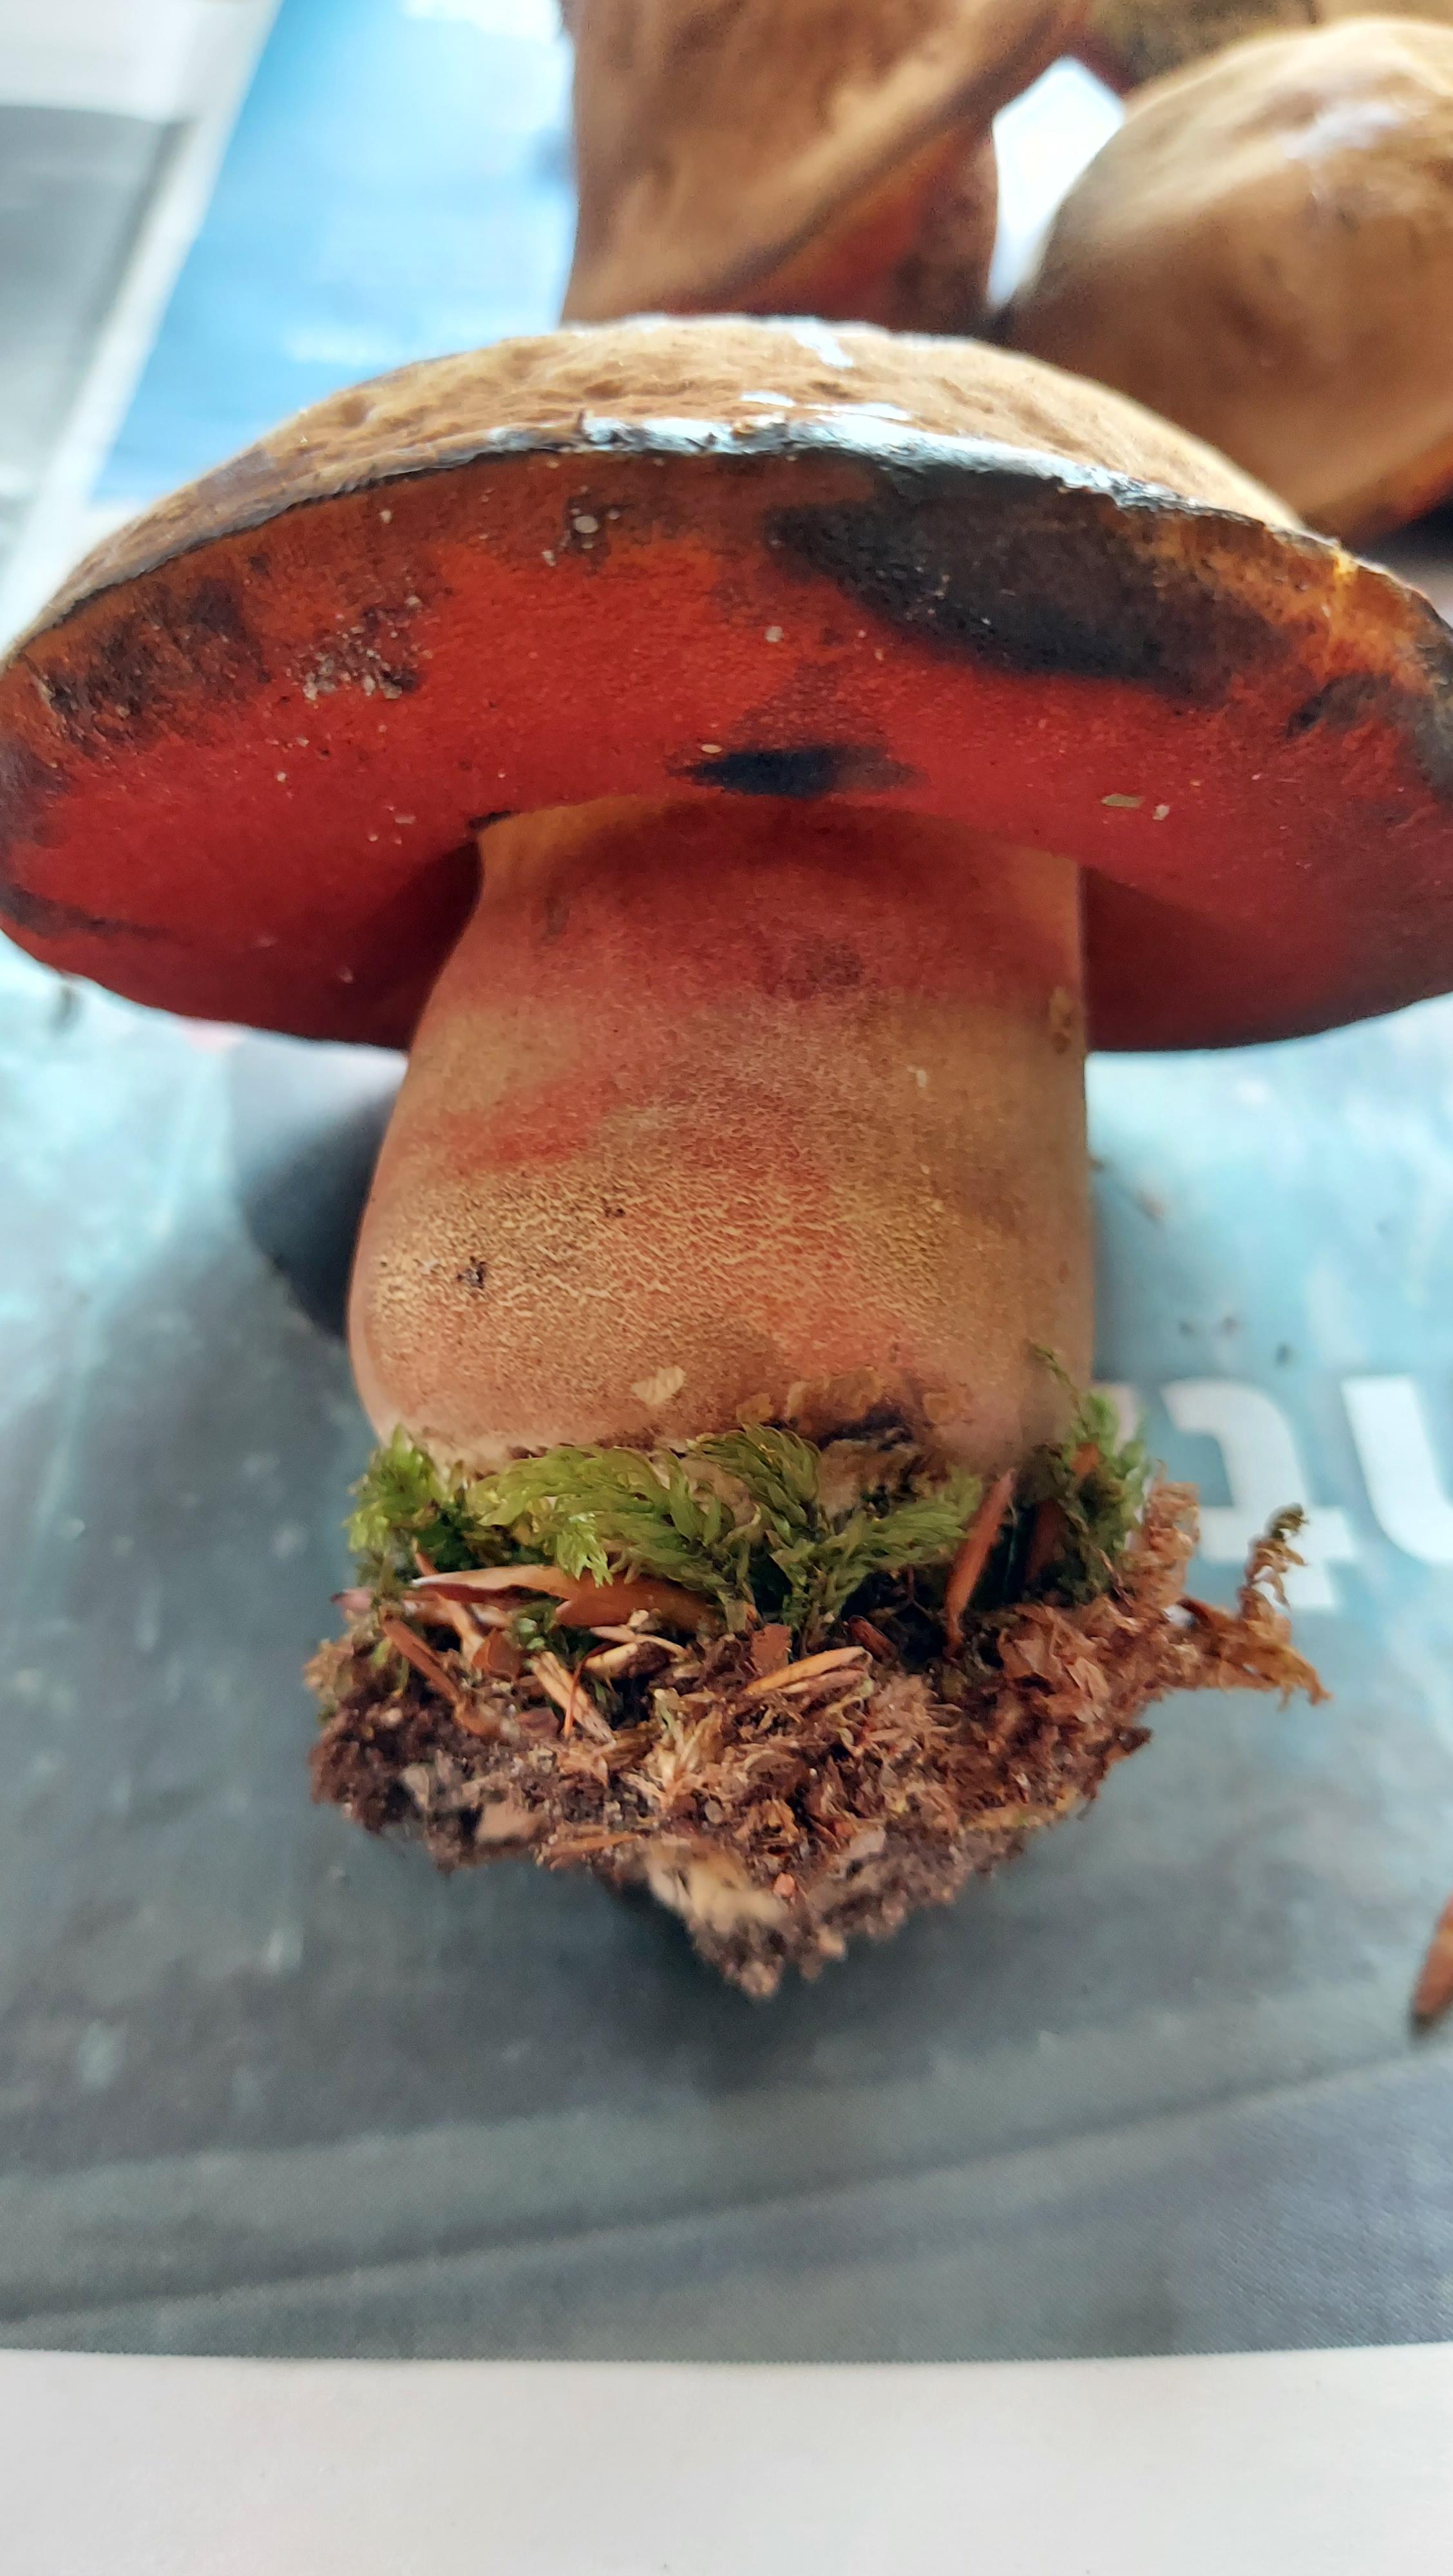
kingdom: Fungi
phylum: Basidiomycota
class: Agaricomycetes
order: Boletales
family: Boletaceae
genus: Neoboletus
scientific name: Neoboletus
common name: indigorørhat
